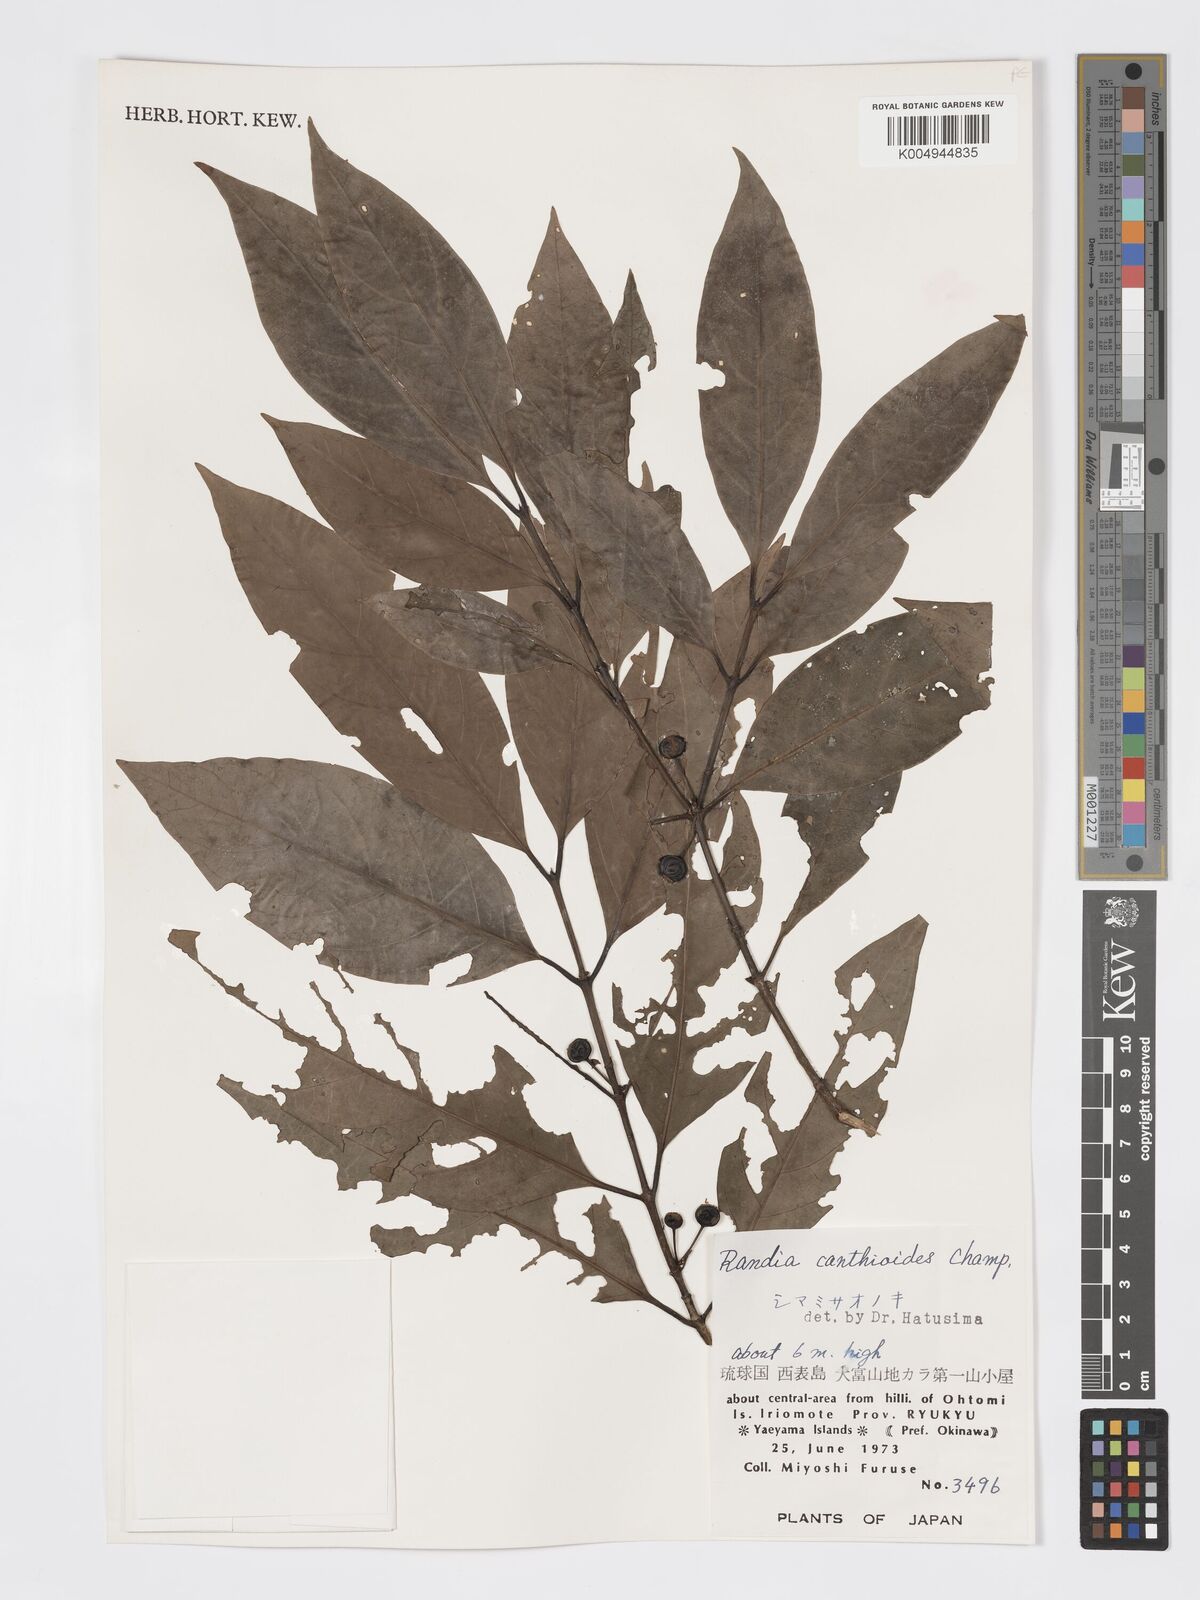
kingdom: Plantae
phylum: Tracheophyta
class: Magnoliopsida
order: Gentianales
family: Rubiaceae
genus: Aidia
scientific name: Aidia canthioides
